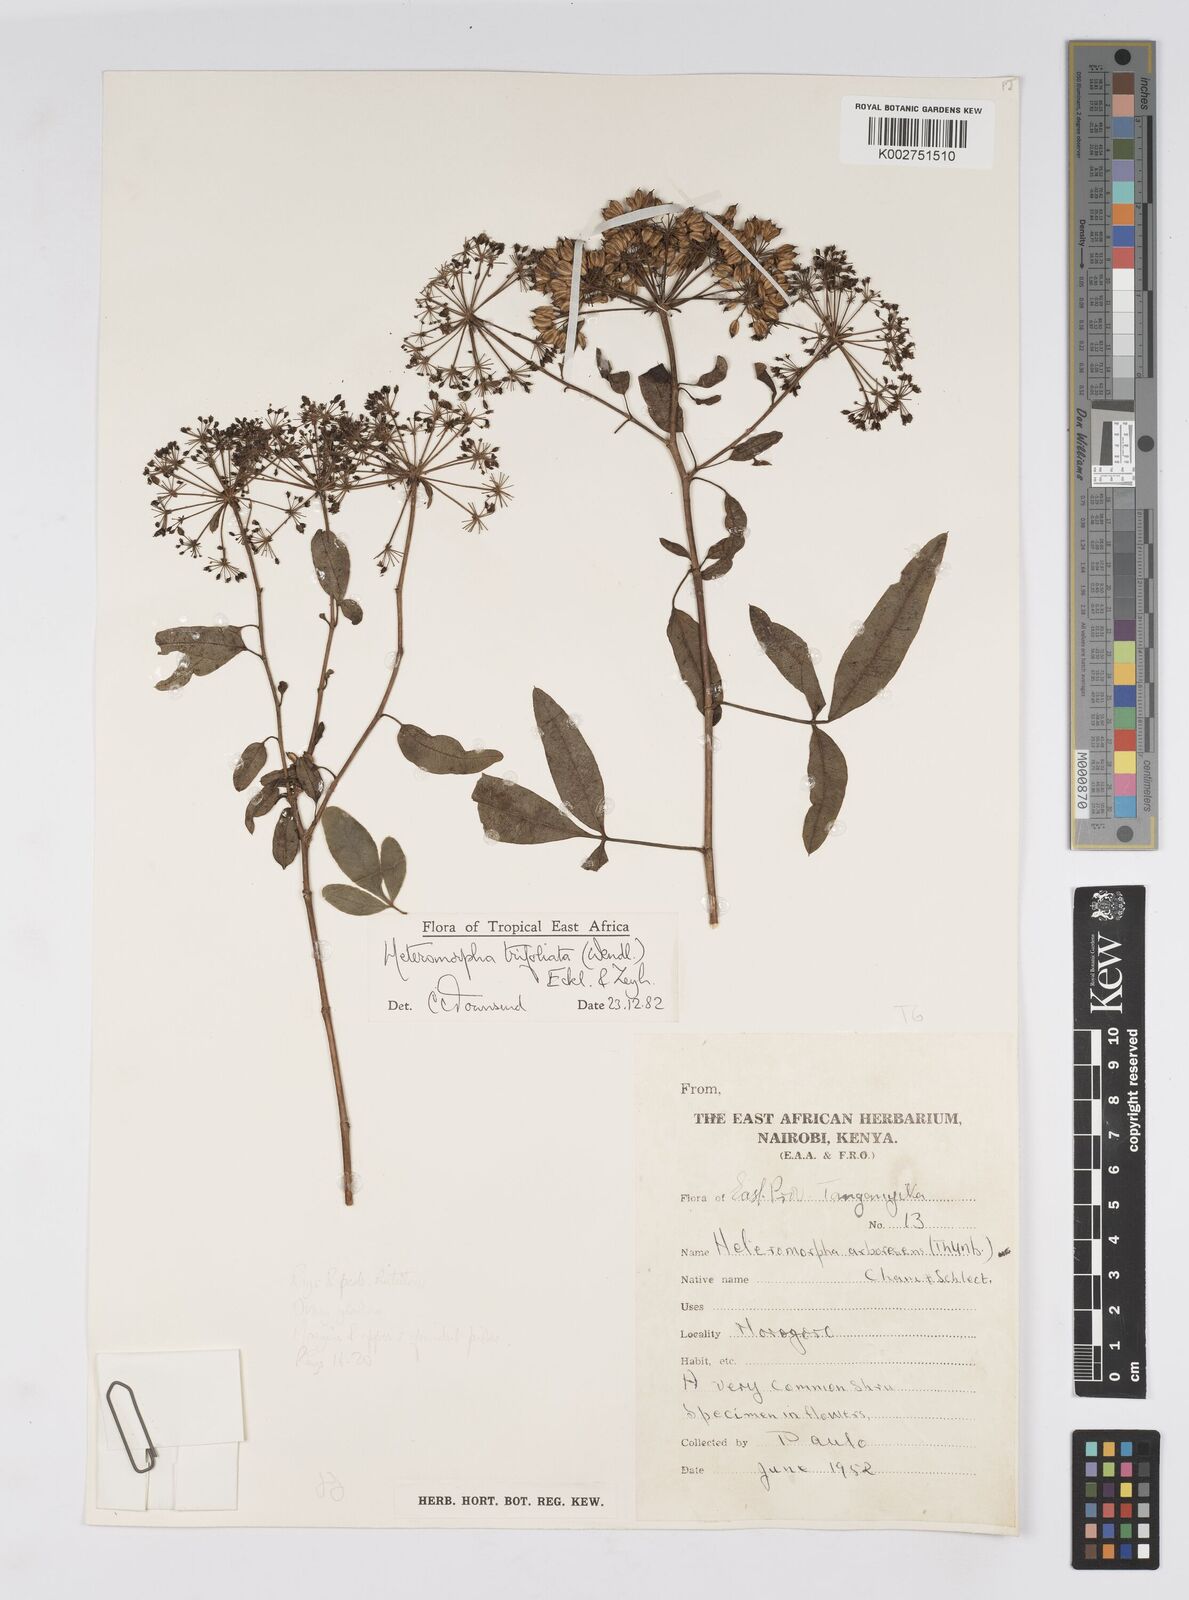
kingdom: Plantae
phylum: Tracheophyta
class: Magnoliopsida
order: Apiales
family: Apiaceae
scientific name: Apiaceae
